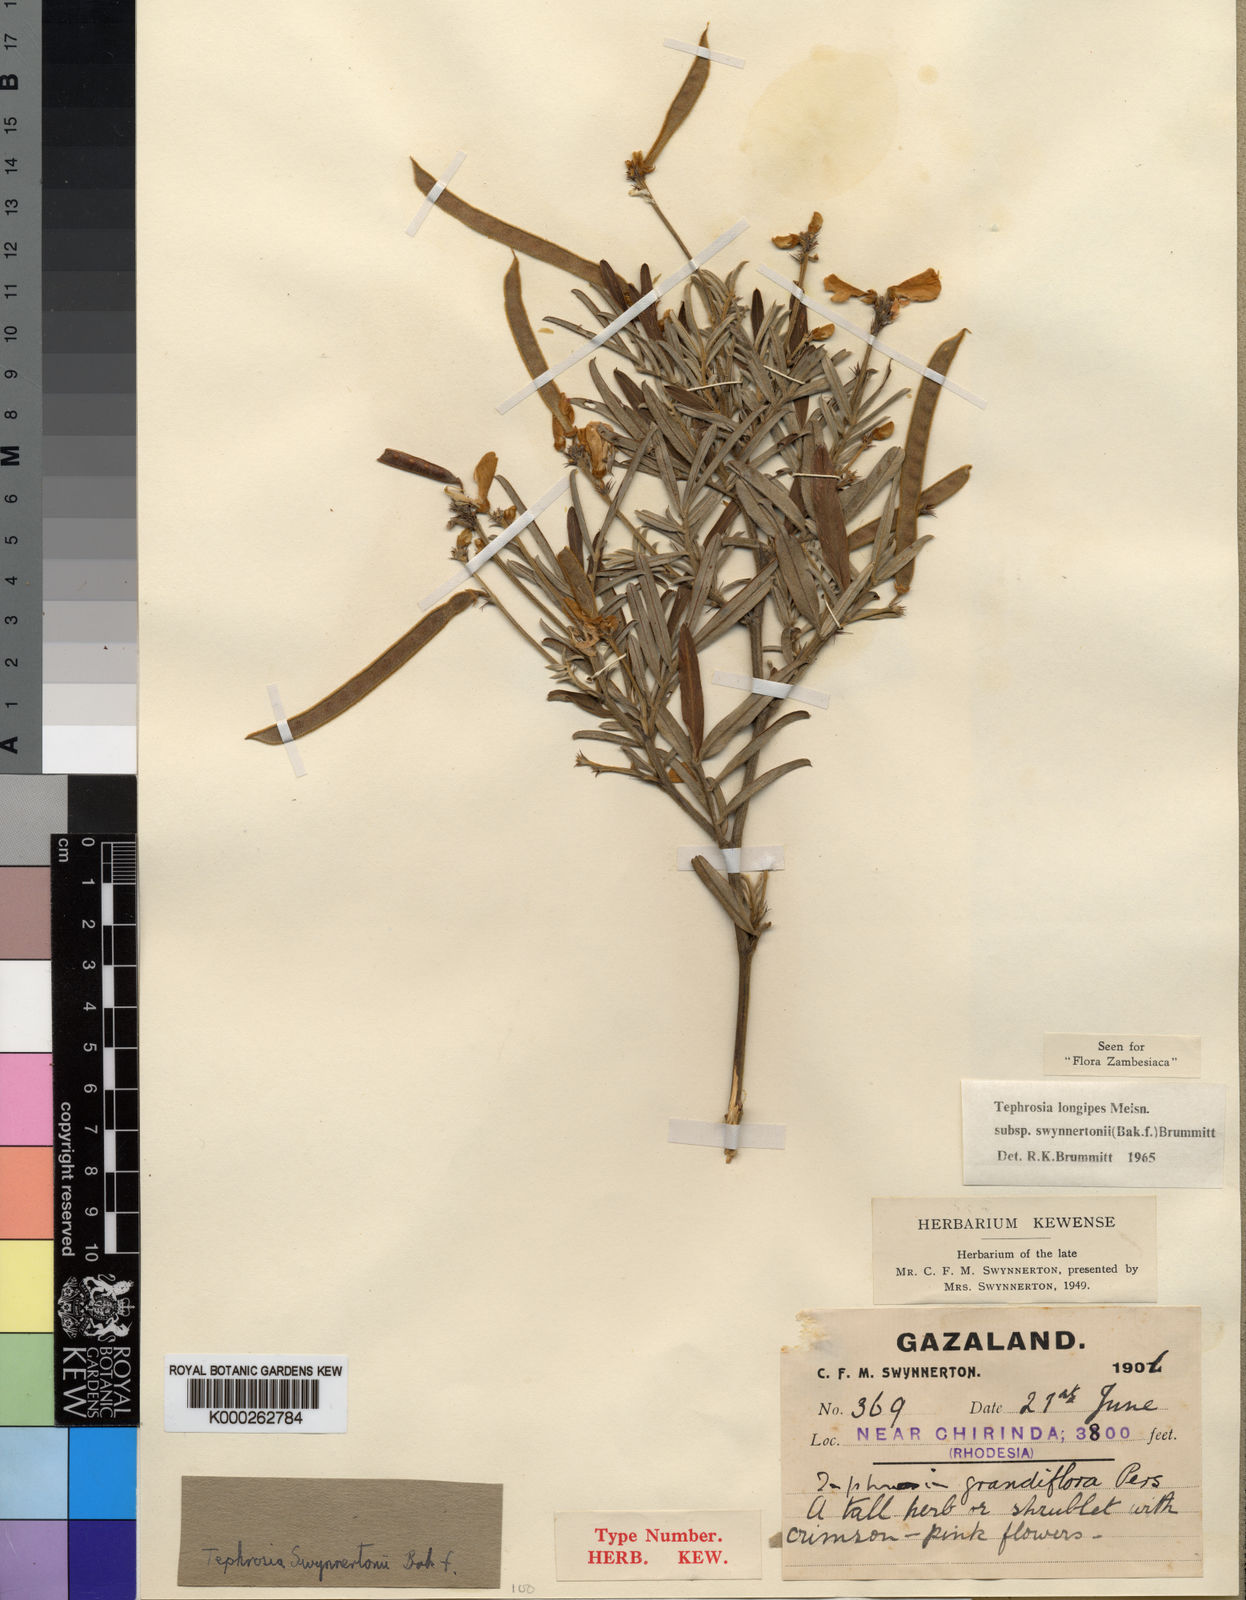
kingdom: Plantae
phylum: Tracheophyta
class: Magnoliopsida
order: Fabales
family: Fabaceae
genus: Tephrosia
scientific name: Tephrosia longipes
